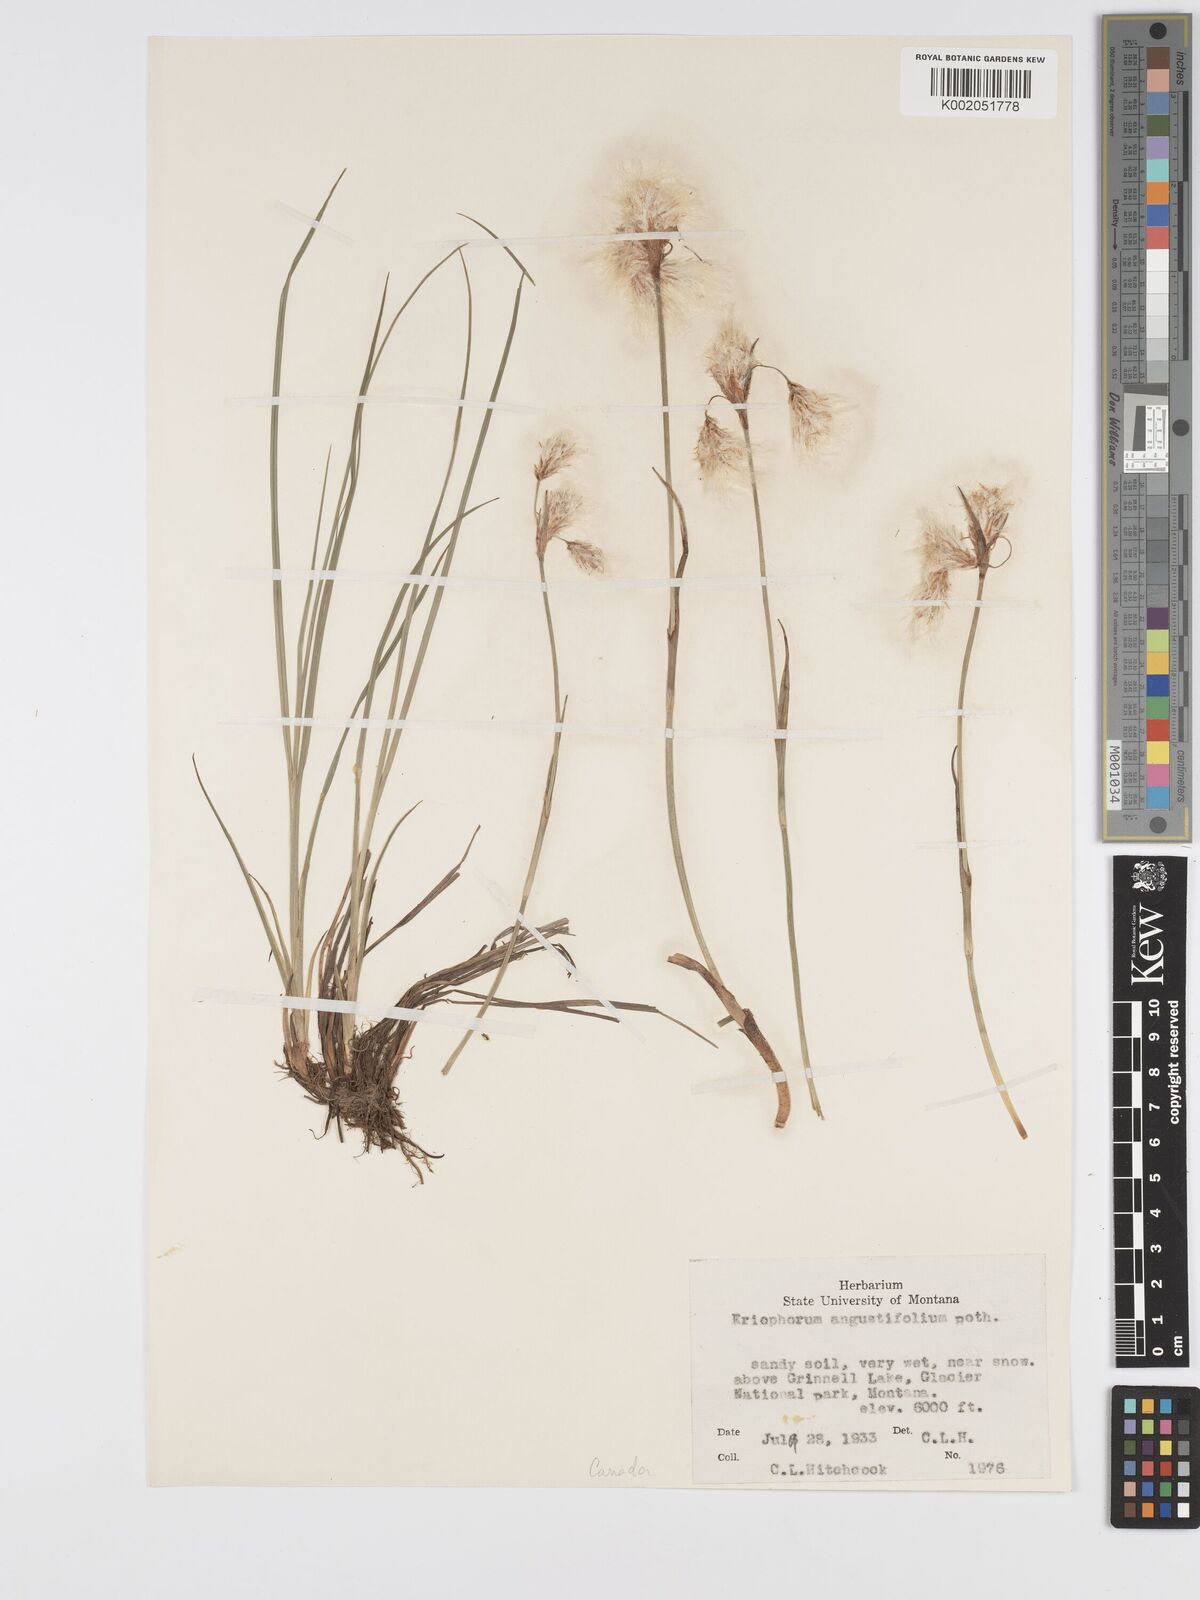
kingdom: Plantae
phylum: Tracheophyta
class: Liliopsida
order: Poales
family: Cyperaceae
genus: Eriophorum
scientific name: Eriophorum angustifolium
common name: Common cottongrass
